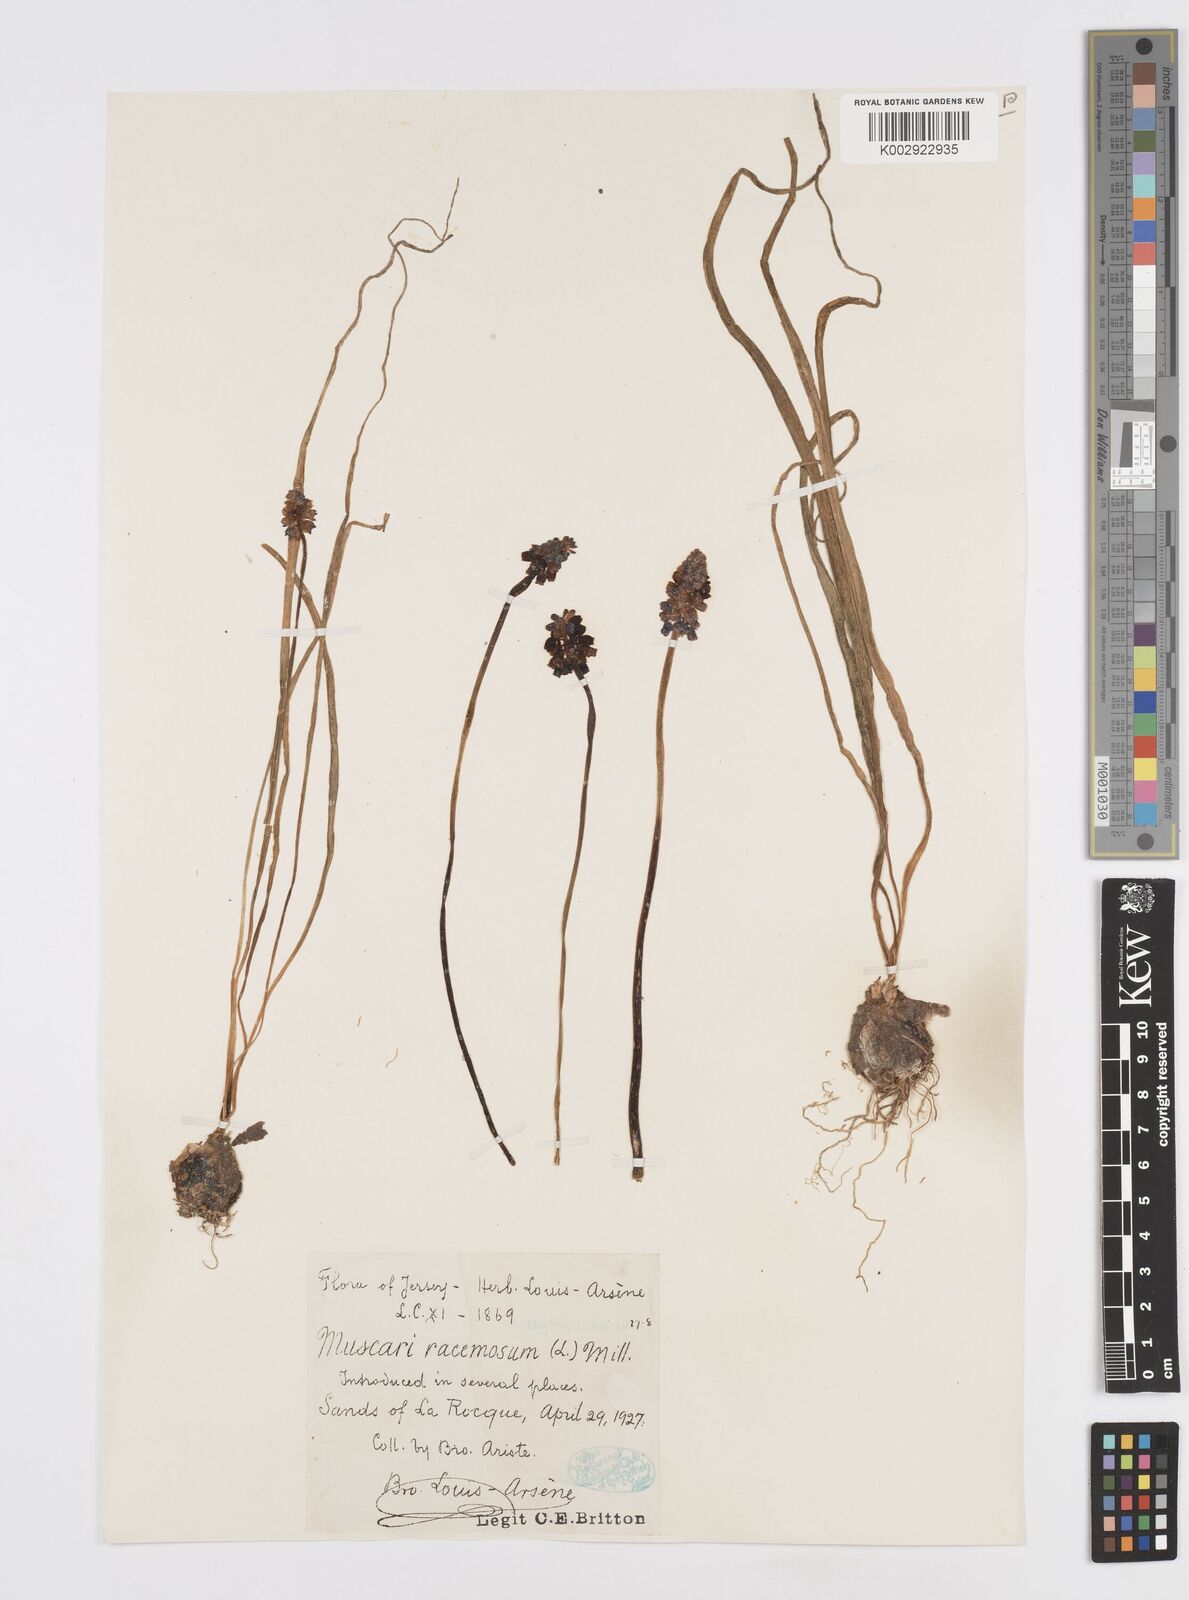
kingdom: Plantae
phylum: Tracheophyta
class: Liliopsida
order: Asparagales
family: Asparagaceae
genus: Muscarimia
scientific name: Muscarimia muscari
